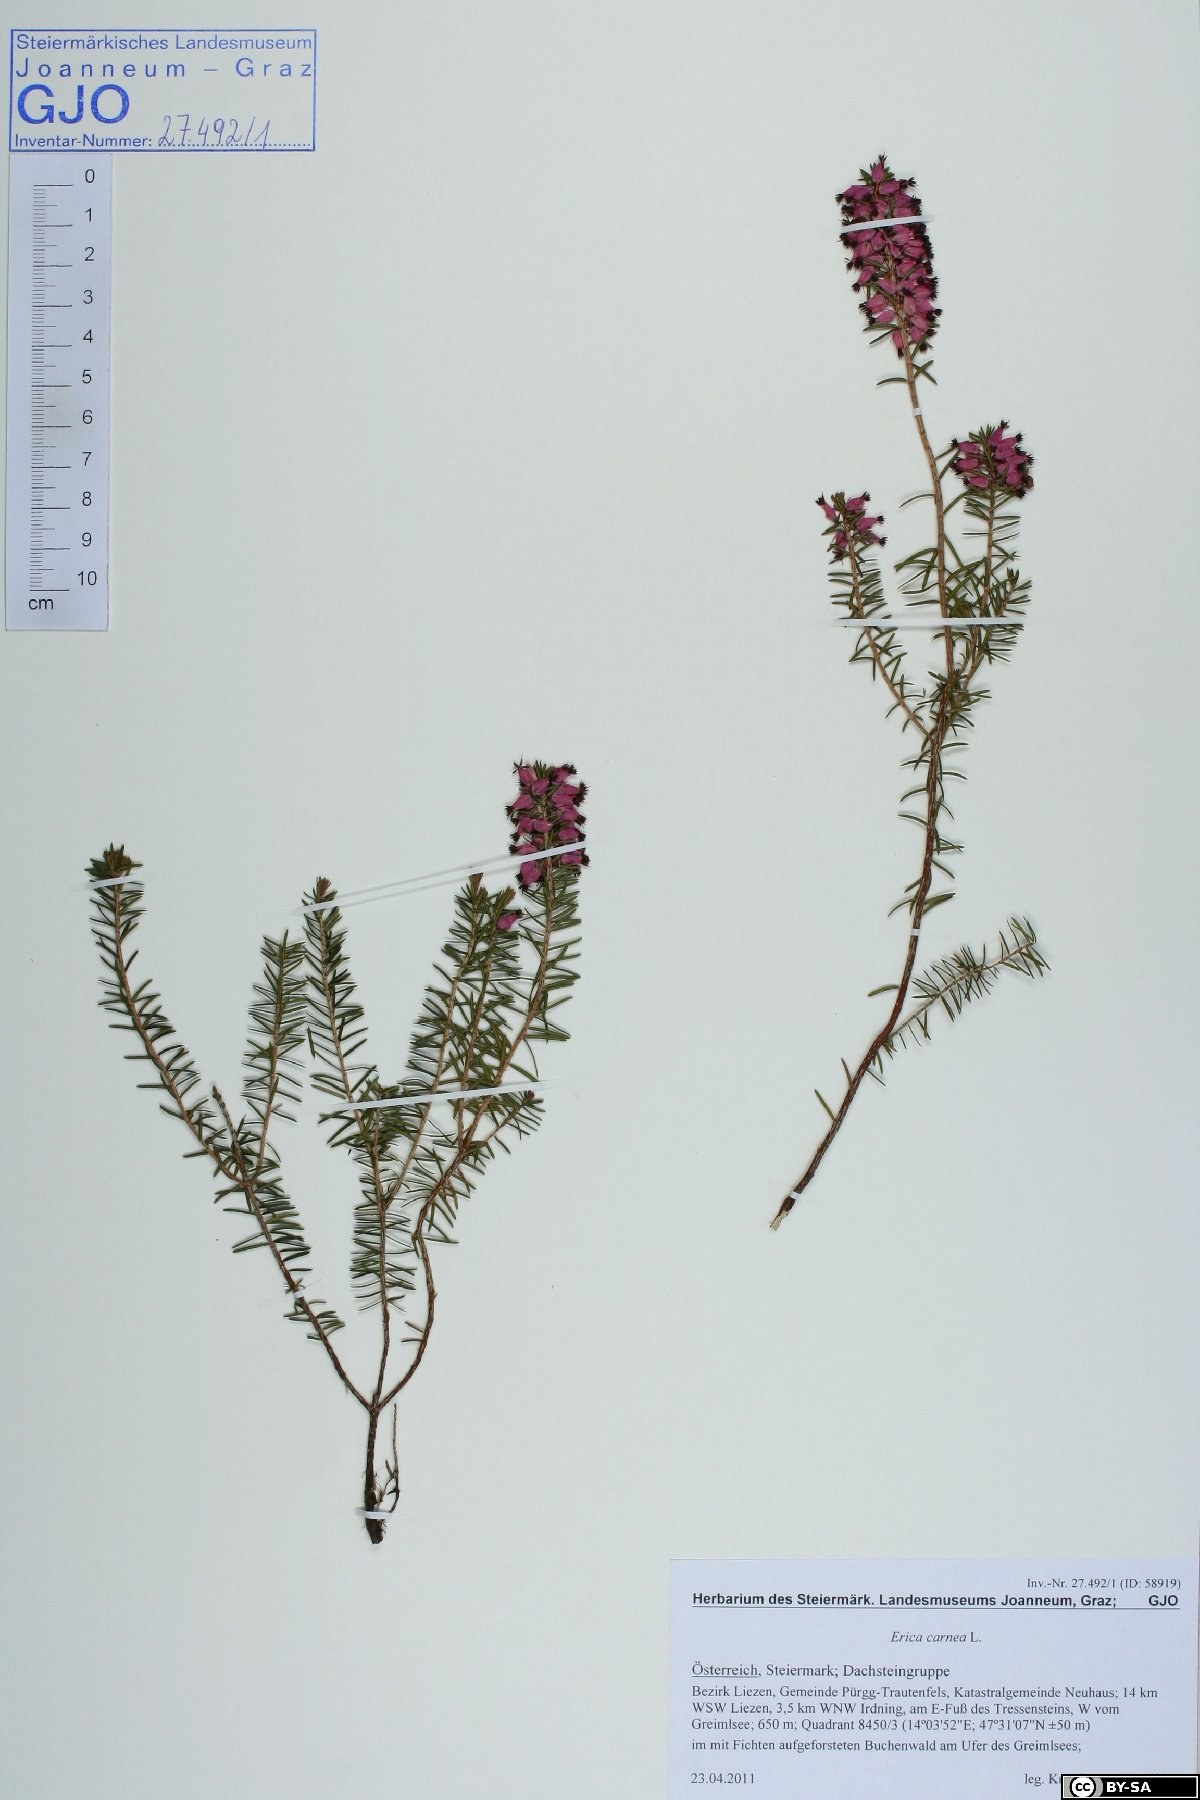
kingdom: Plantae
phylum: Tracheophyta
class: Magnoliopsida
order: Ericales
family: Ericaceae
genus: Erica
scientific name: Erica carnea
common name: Winter heath
